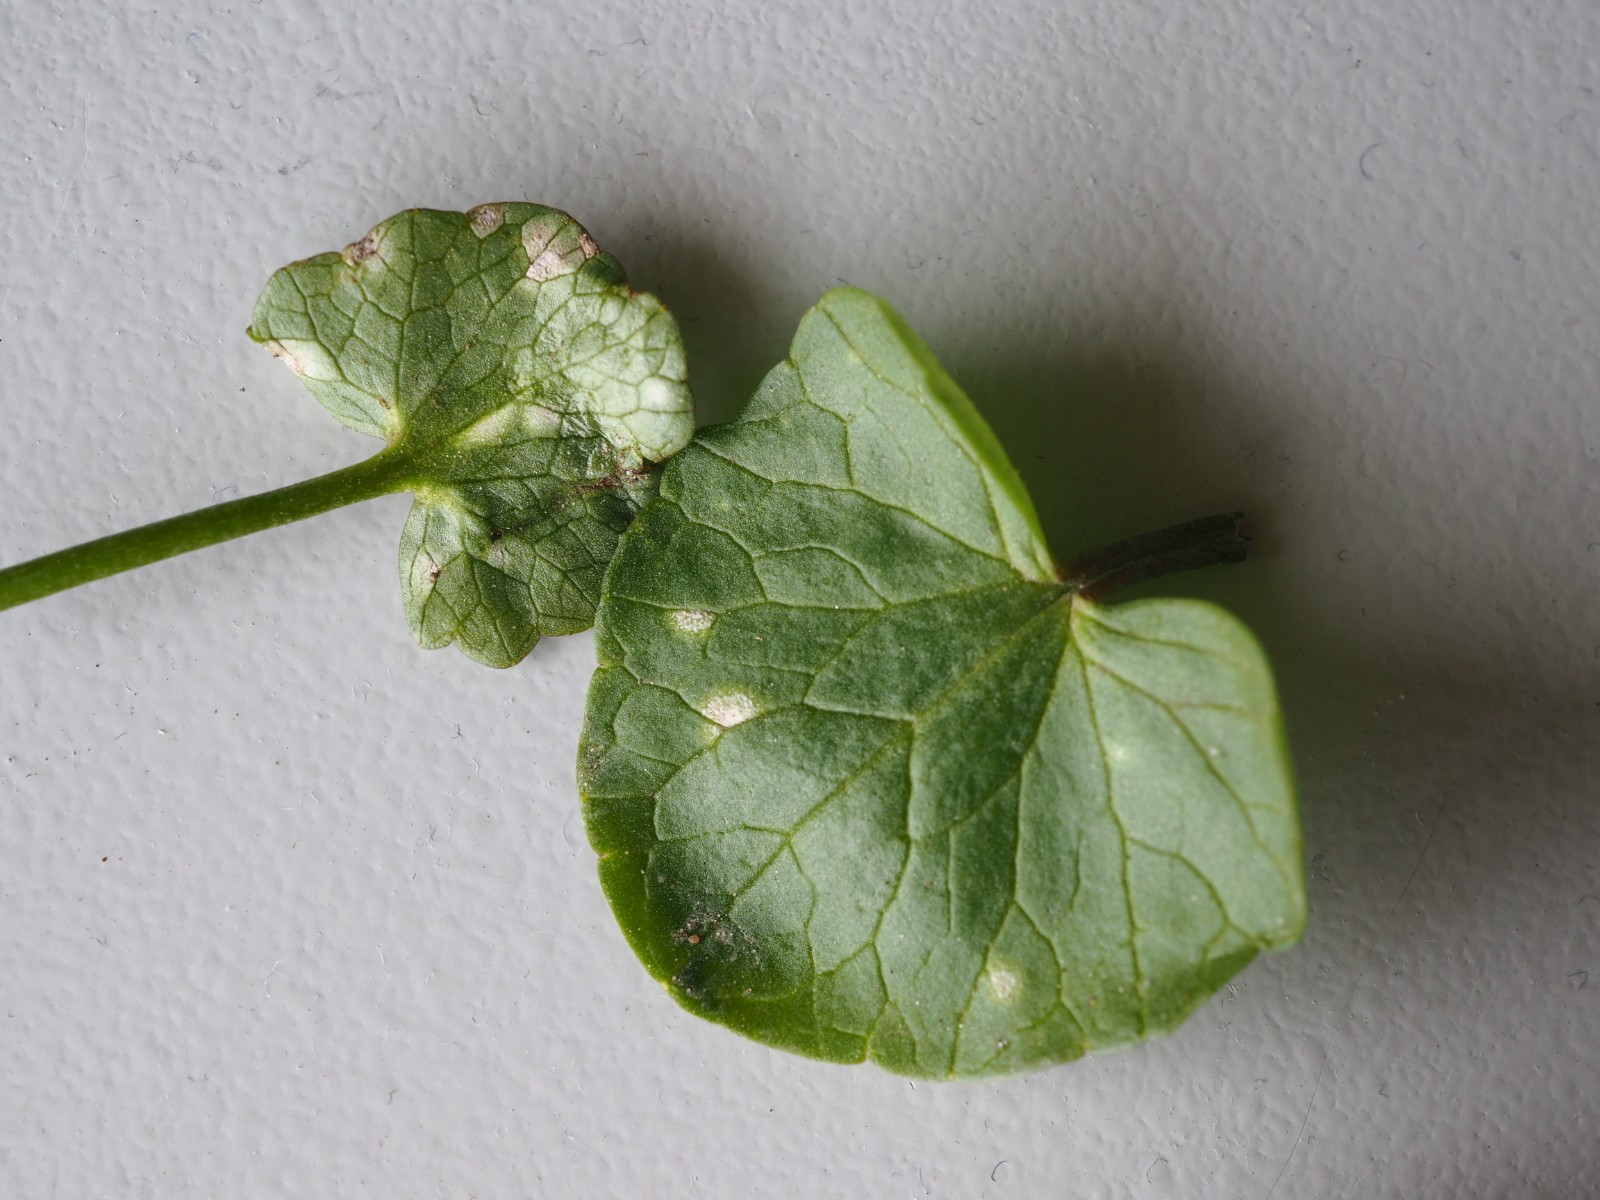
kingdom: Chromista
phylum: Oomycota
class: Peronosporea
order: Peronosporales
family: Peronosporaceae
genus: Peronospora
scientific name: Peronospora ficariae
